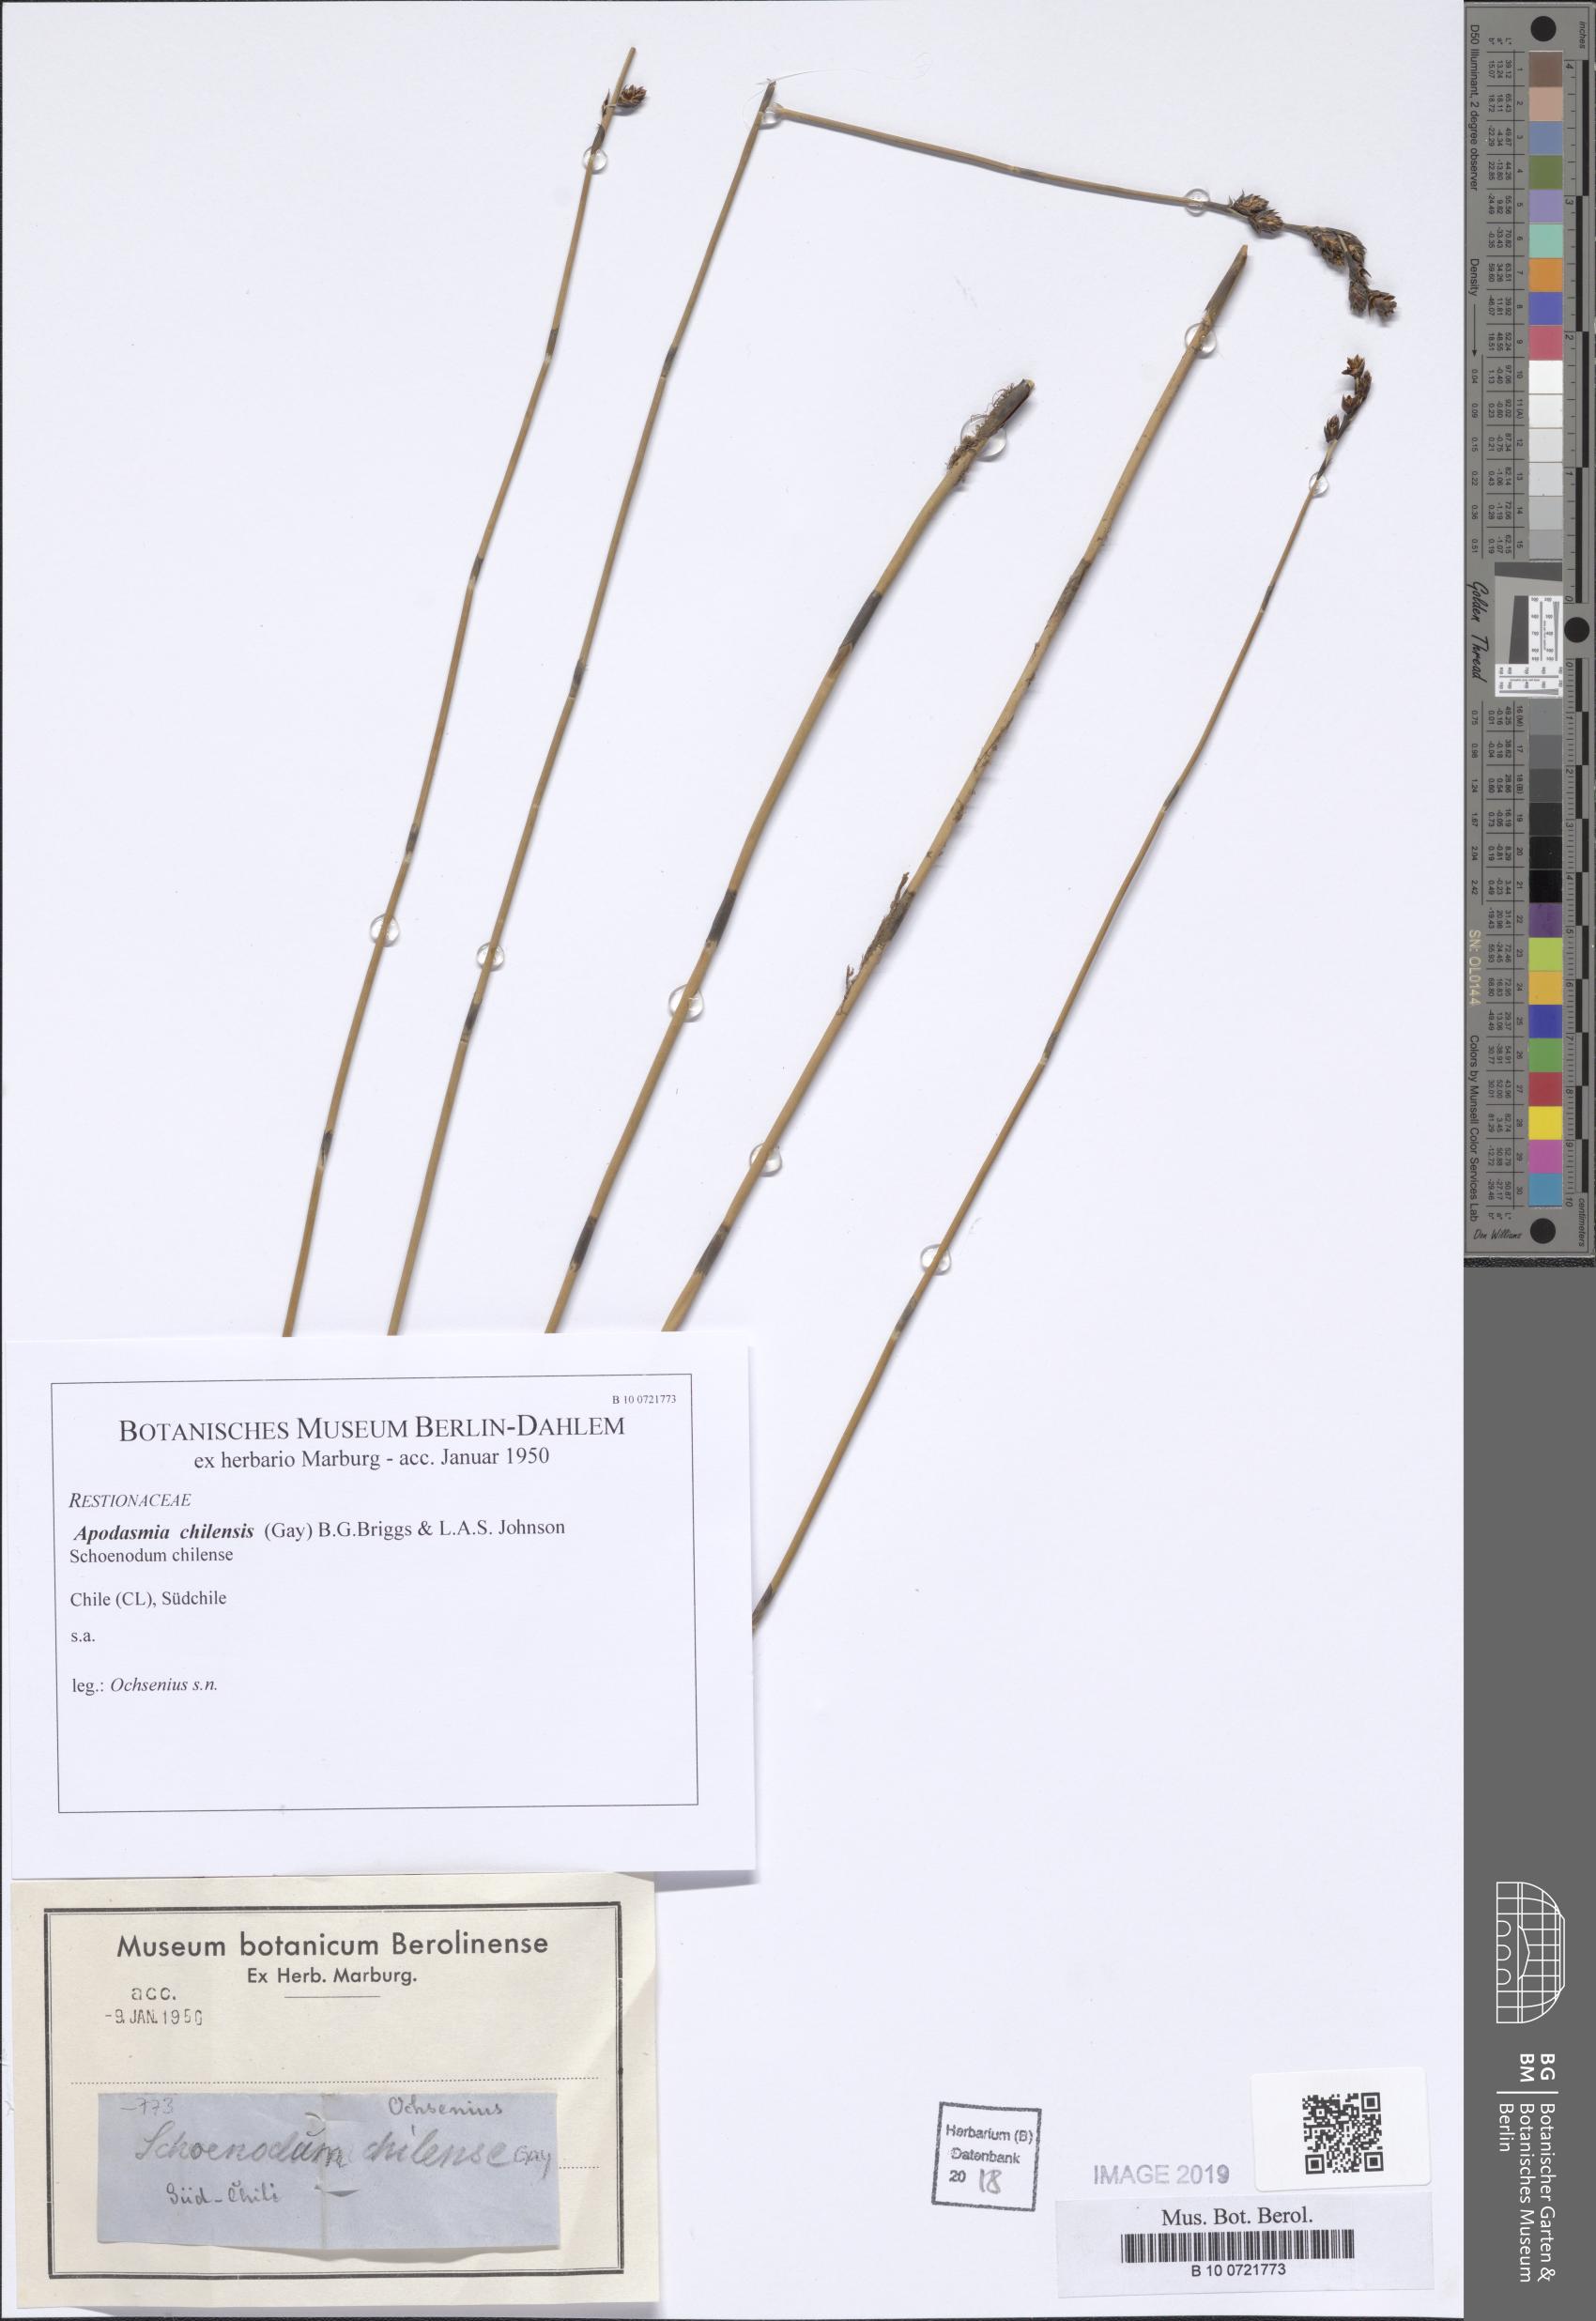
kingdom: Plantae
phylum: Tracheophyta
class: Liliopsida
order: Poales
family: Restionaceae
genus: Apodasmia
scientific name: Apodasmia chilensis
